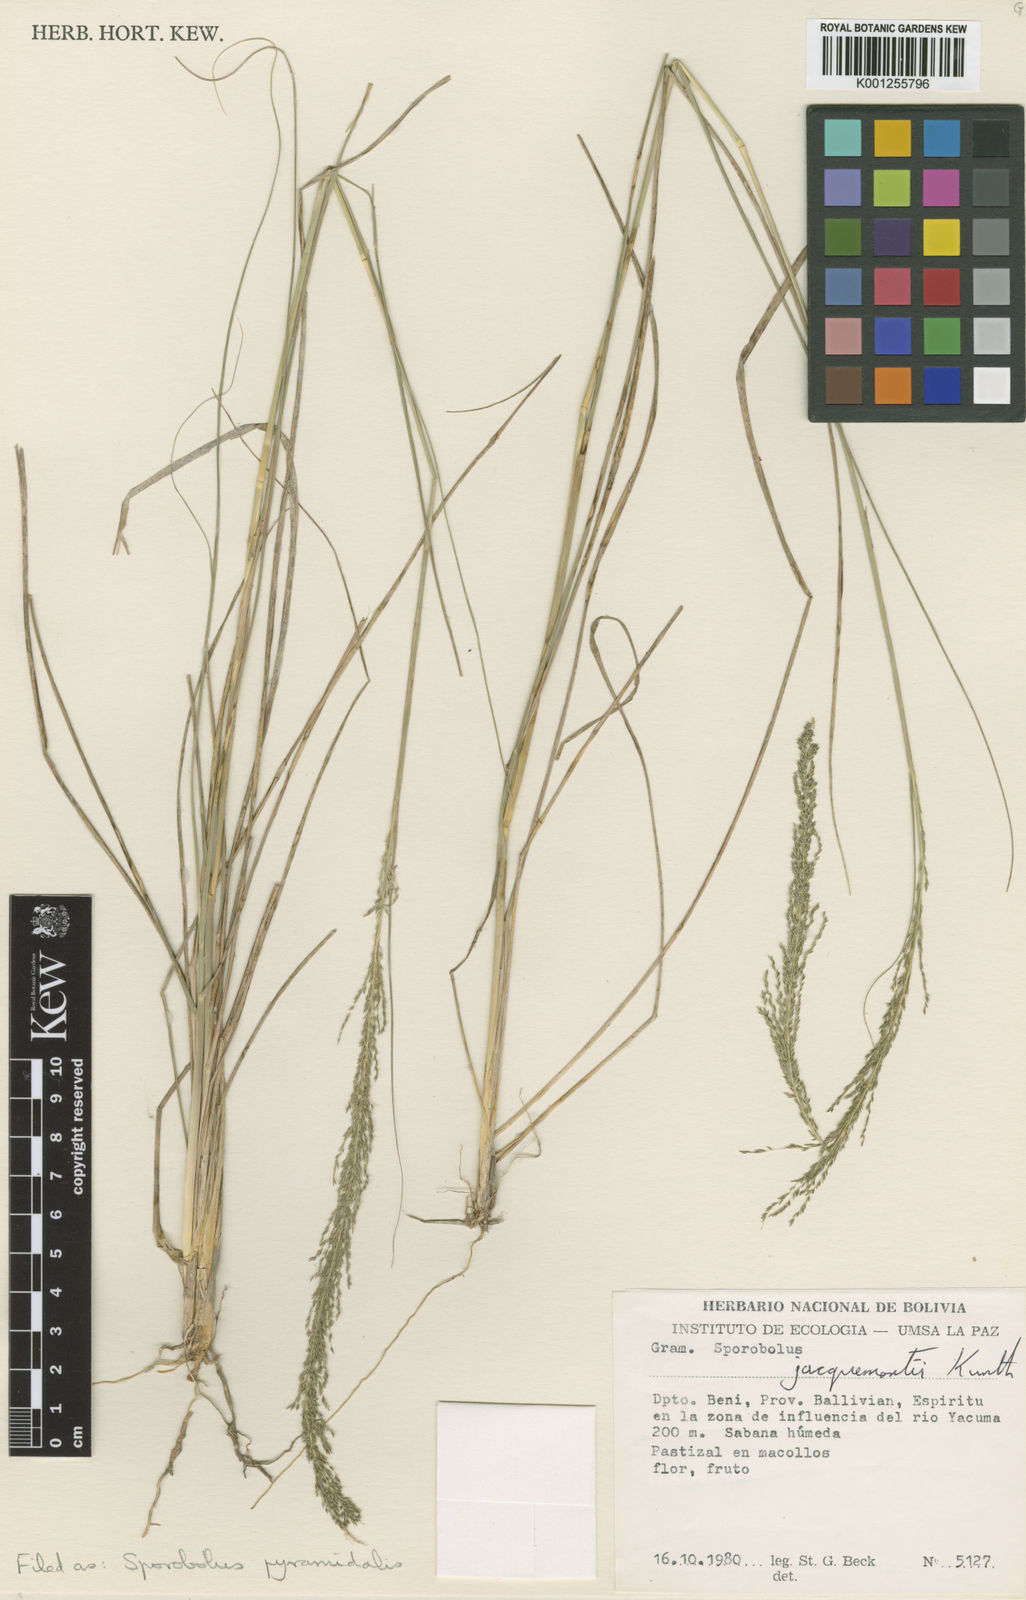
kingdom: Plantae
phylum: Tracheophyta
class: Liliopsida
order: Poales
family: Poaceae
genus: Sporobolus
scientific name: Sporobolus pyramidalis
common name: West indian dropseed
